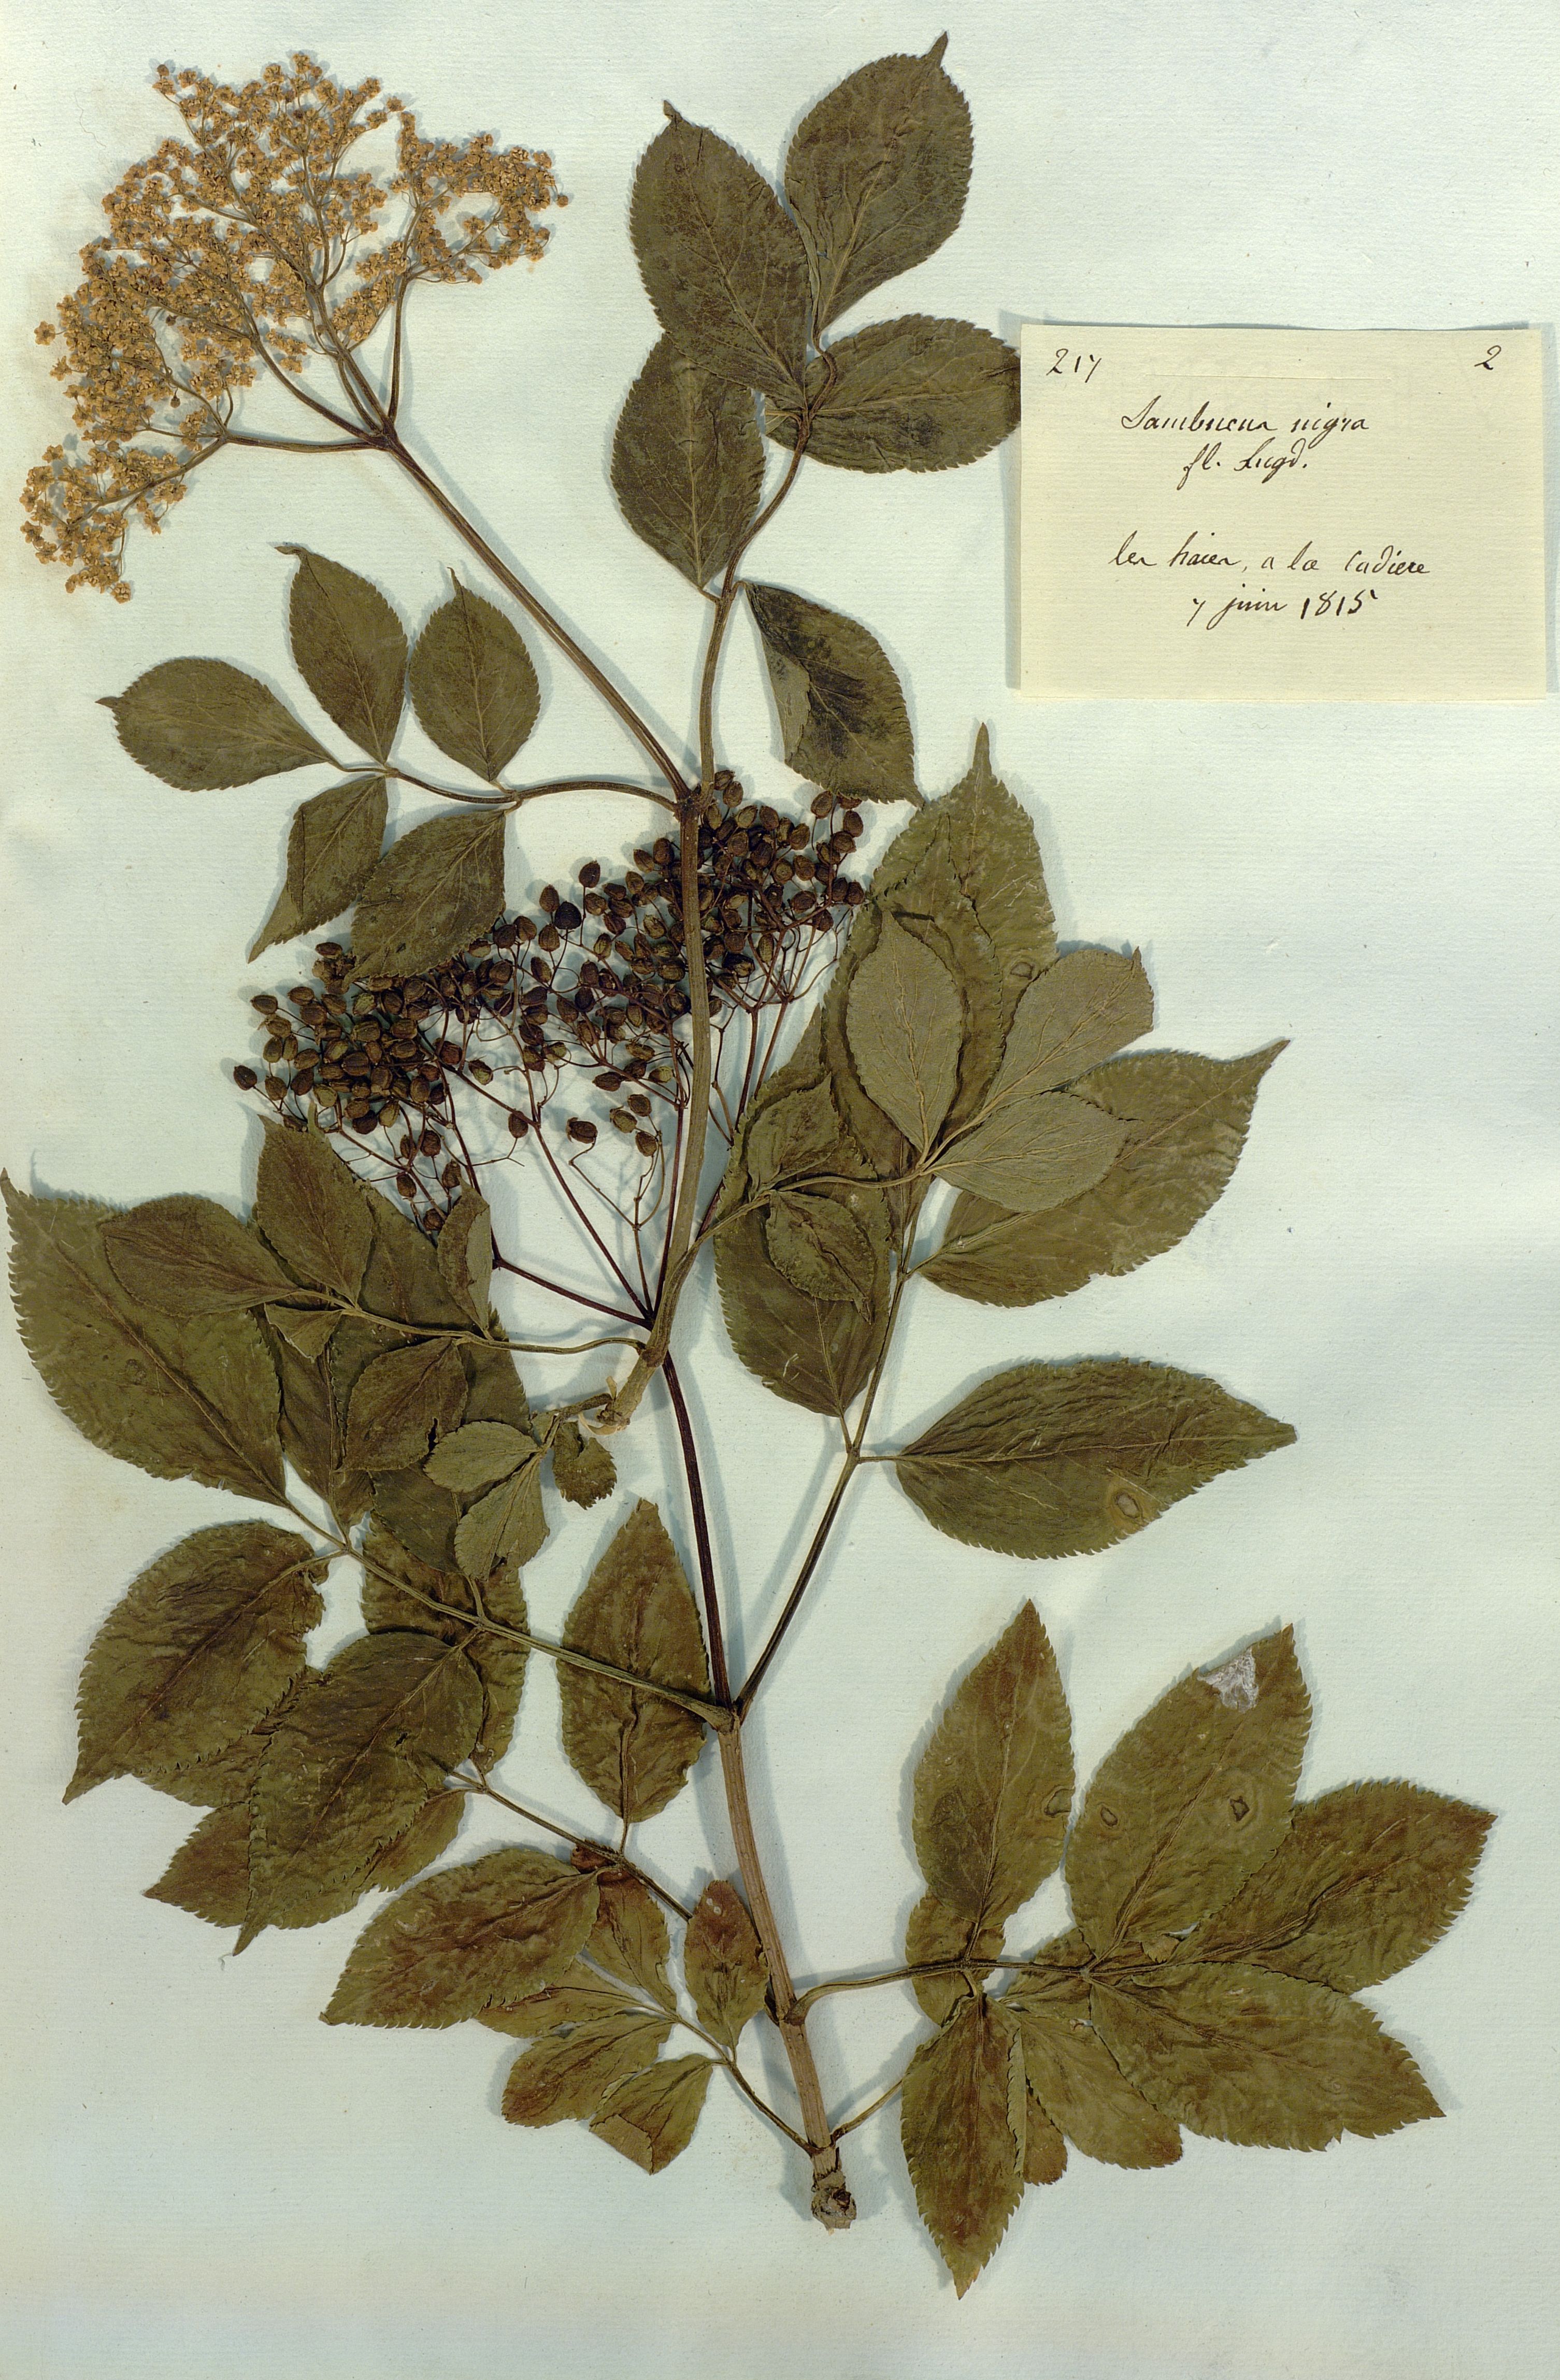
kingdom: Plantae
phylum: Tracheophyta
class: Magnoliopsida
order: Dipsacales
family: Viburnaceae
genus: Sambucus
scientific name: Sambucus nigra
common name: Elder
